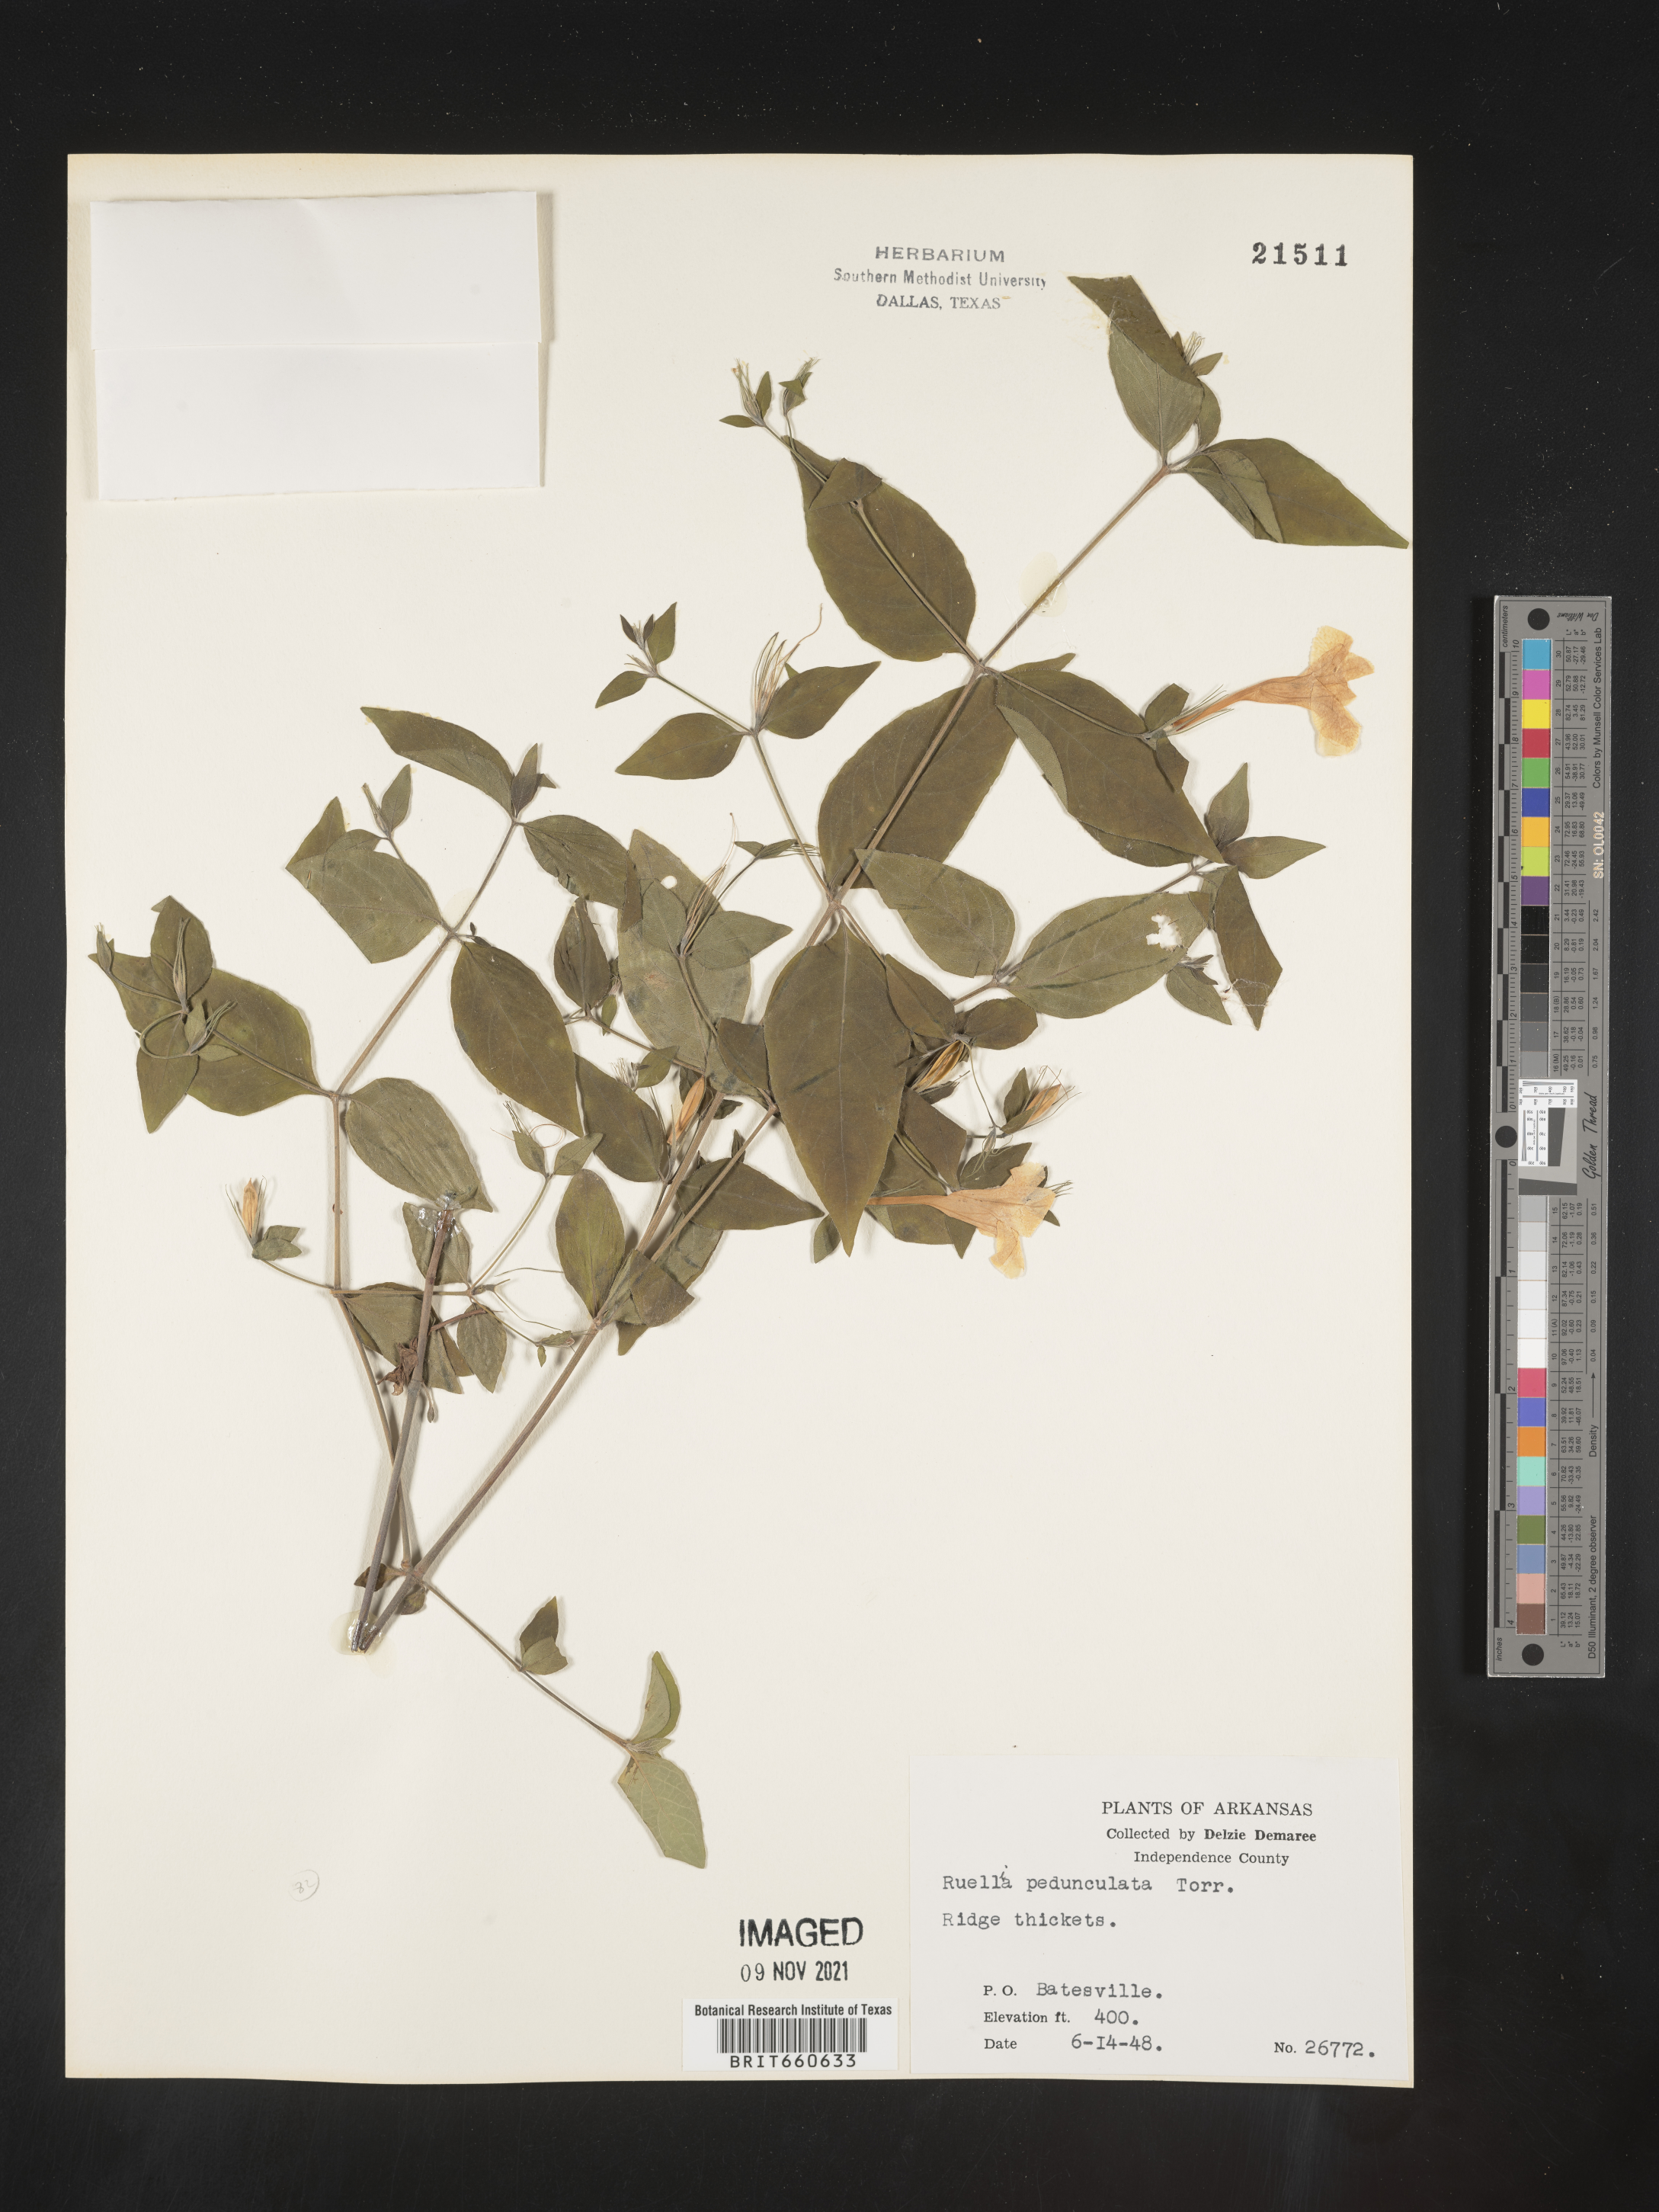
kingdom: Plantae
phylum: Tracheophyta
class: Magnoliopsida
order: Lamiales
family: Acanthaceae
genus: Ruellia
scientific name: Ruellia pedunculata
